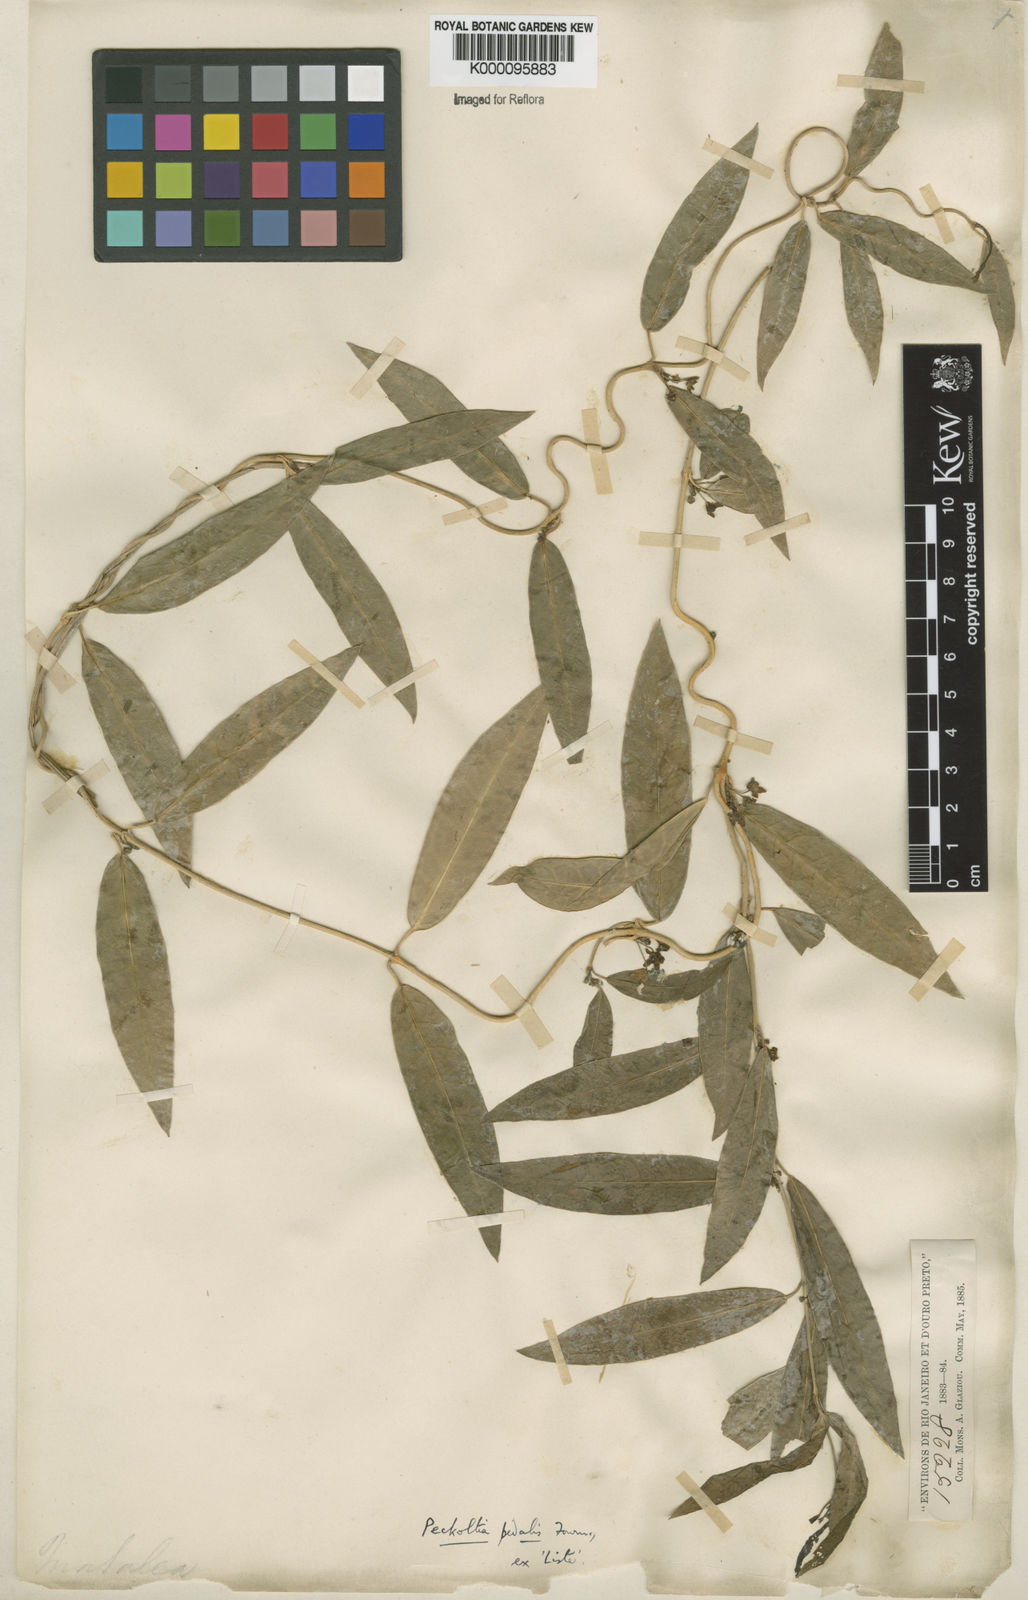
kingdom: Plantae
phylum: Tracheophyta
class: Magnoliopsida
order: Gentianales
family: Apocynaceae
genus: Matelea
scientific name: Matelea pedalis
